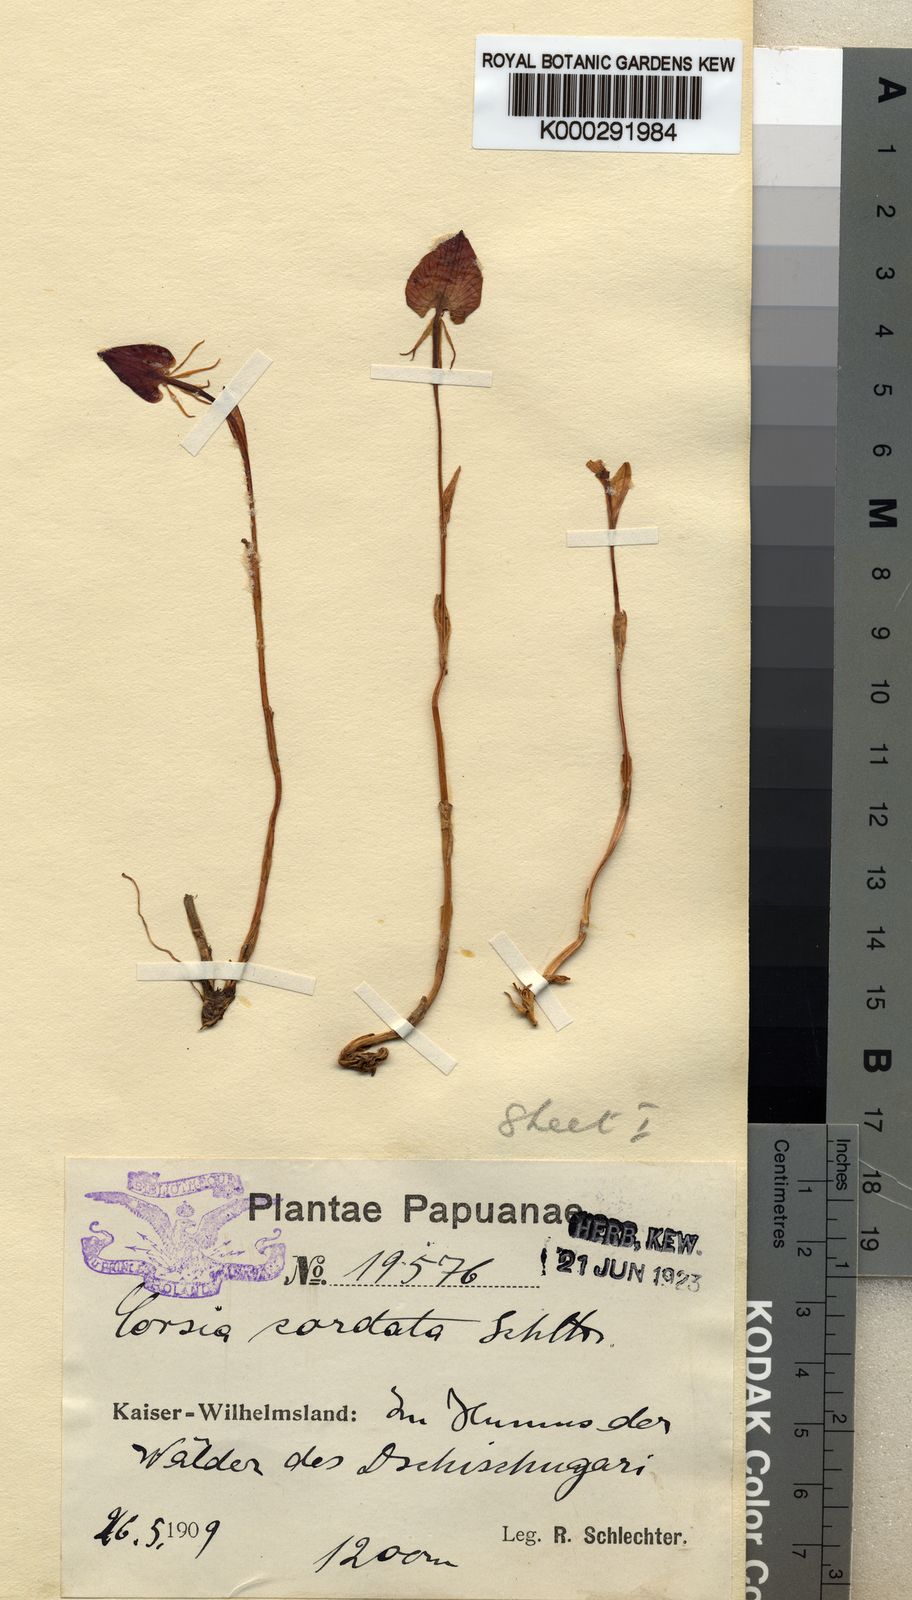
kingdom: Plantae
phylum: Tracheophyta
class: Liliopsida
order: Liliales
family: Corsiaceae
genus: Corsia
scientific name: Corsia cordata
